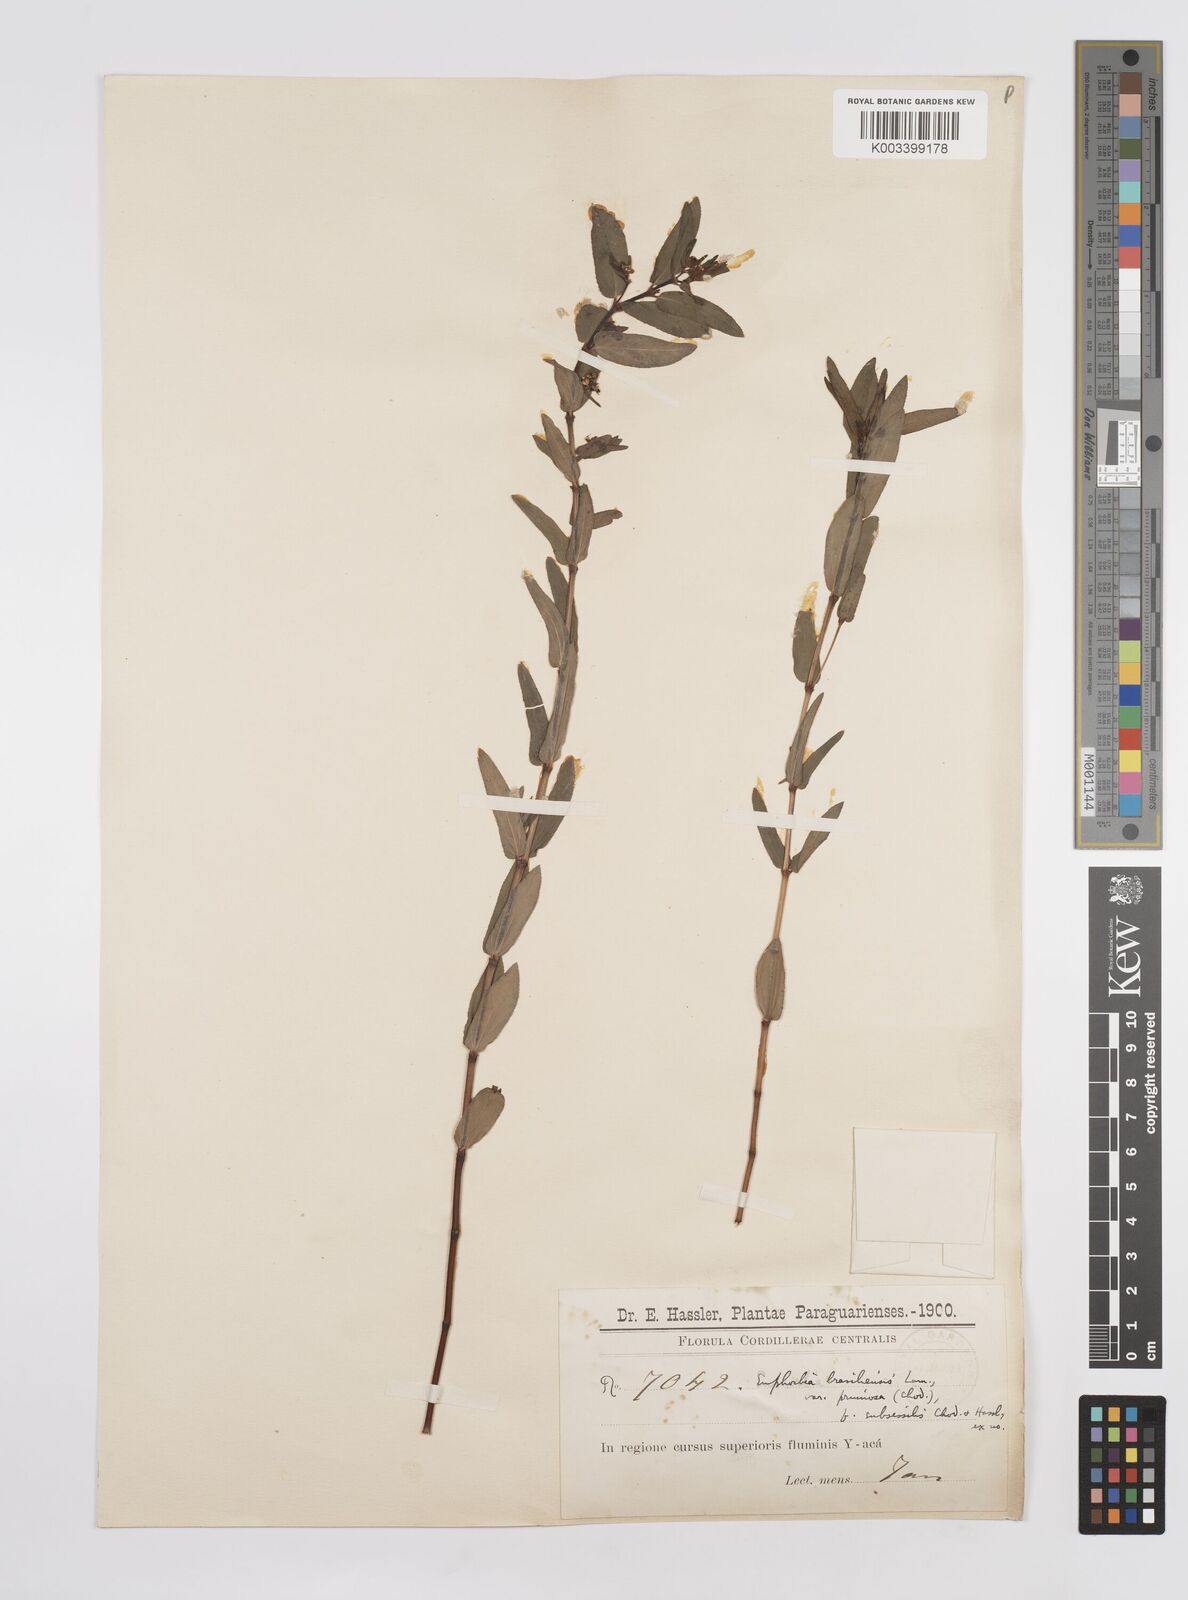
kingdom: Plantae
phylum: Tracheophyta
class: Magnoliopsida
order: Malpighiales
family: Euphorbiaceae
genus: Euphorbia
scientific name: Euphorbia hyssopifolia
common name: Hyssopleaf sandmat
